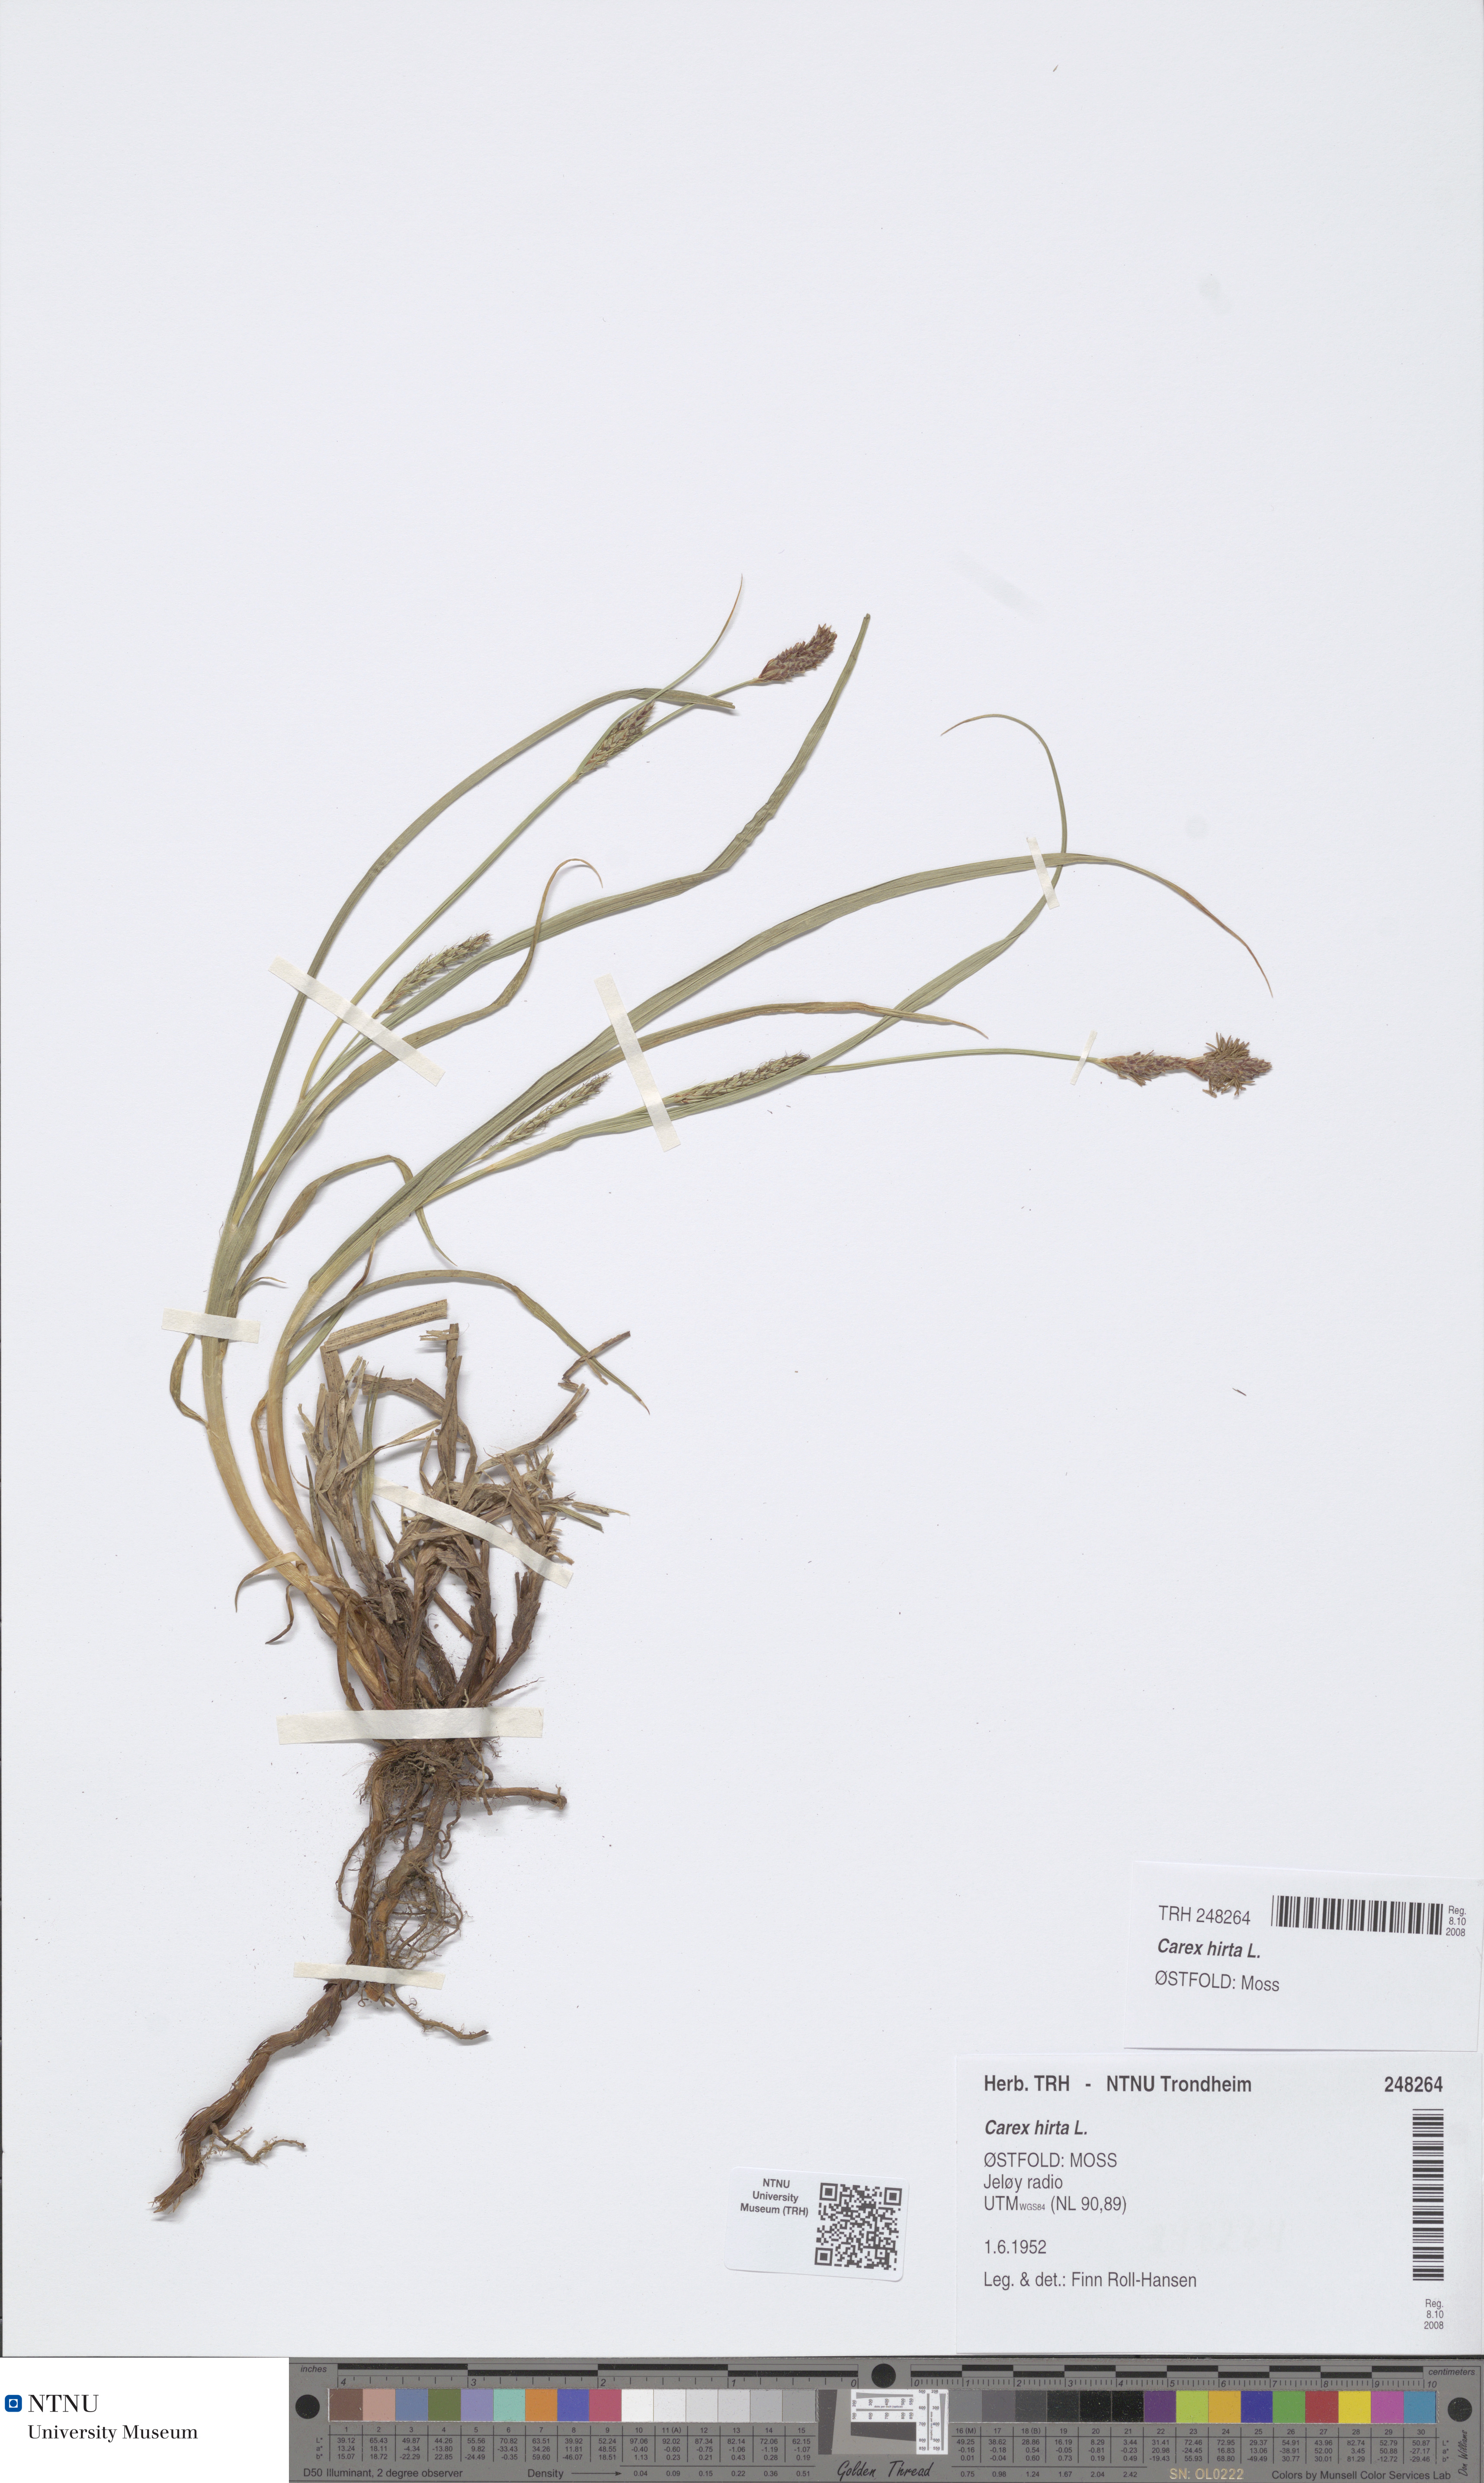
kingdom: Plantae
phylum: Tracheophyta
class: Liliopsida
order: Poales
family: Cyperaceae
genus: Carex
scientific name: Carex hirta
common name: Hairy sedge
